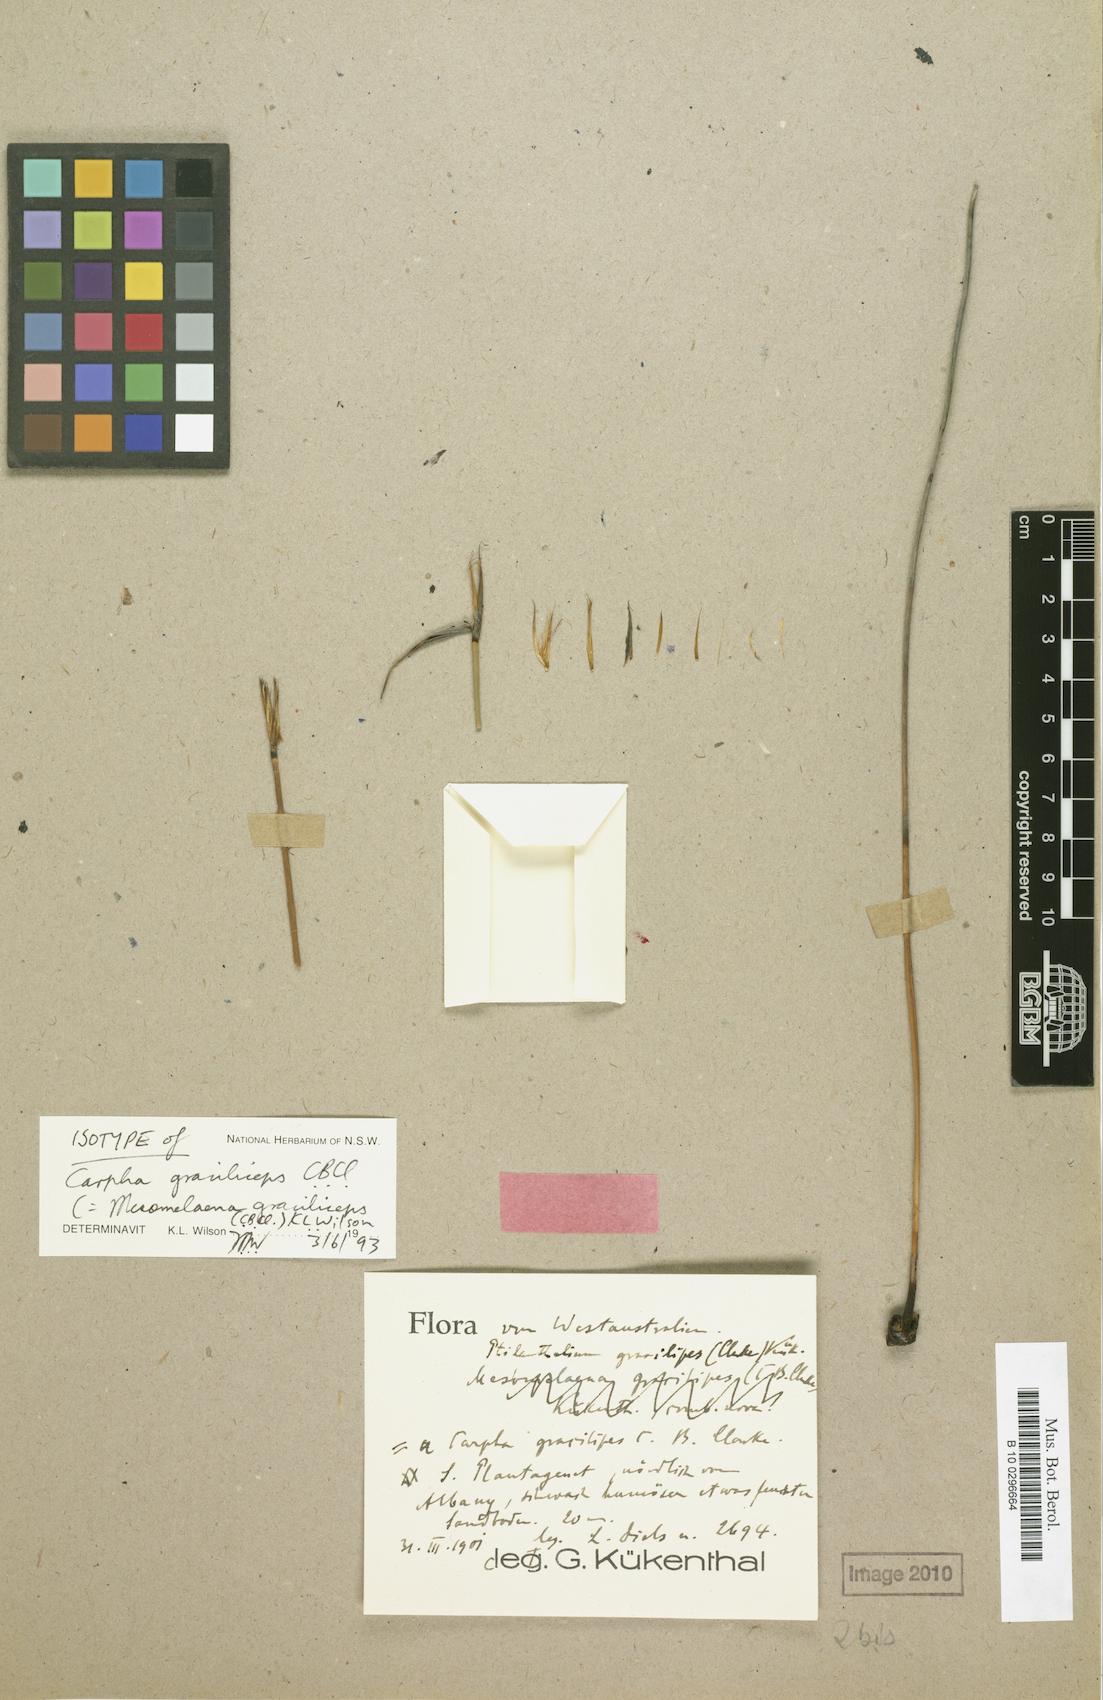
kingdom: Plantae
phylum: Tracheophyta
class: Liliopsida
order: Poales
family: Cyperaceae
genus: Mesomelaena
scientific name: Mesomelaena graciliceps
